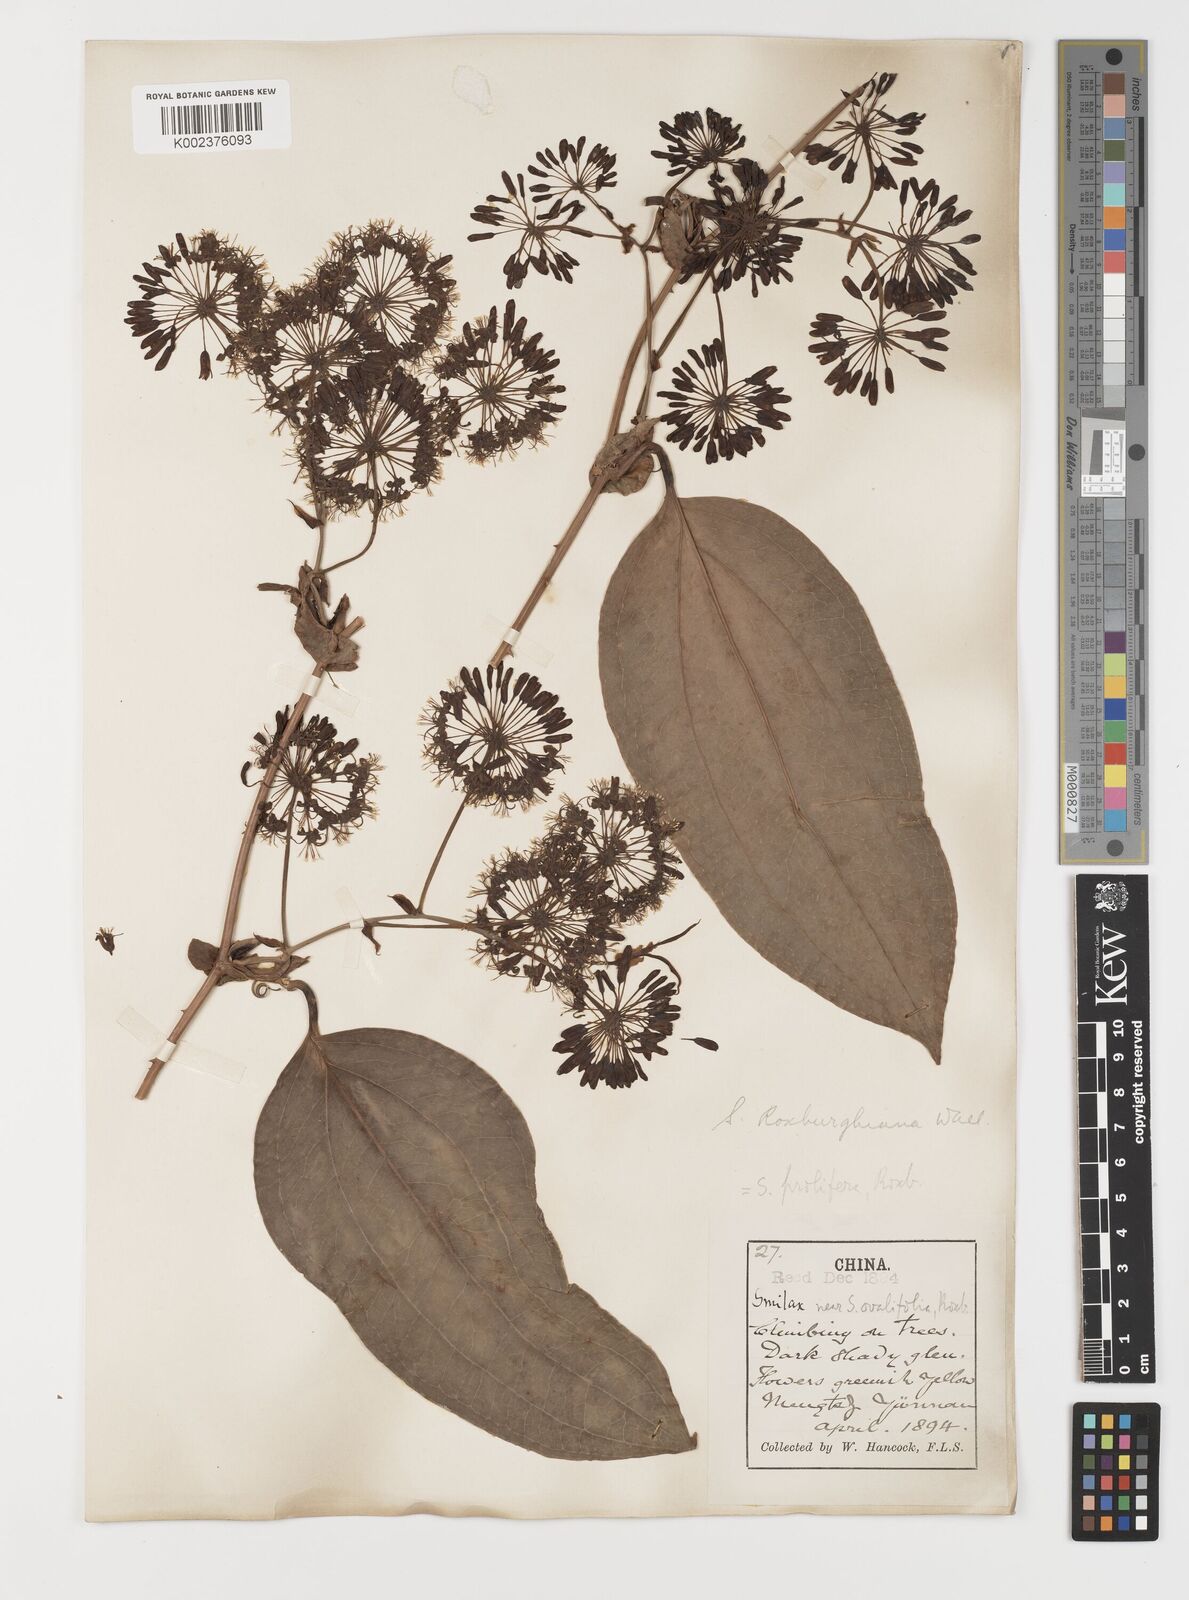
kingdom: Plantae
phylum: Tracheophyta
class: Liliopsida
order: Liliales
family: Smilacaceae
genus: Smilax
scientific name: Smilax ocreata
